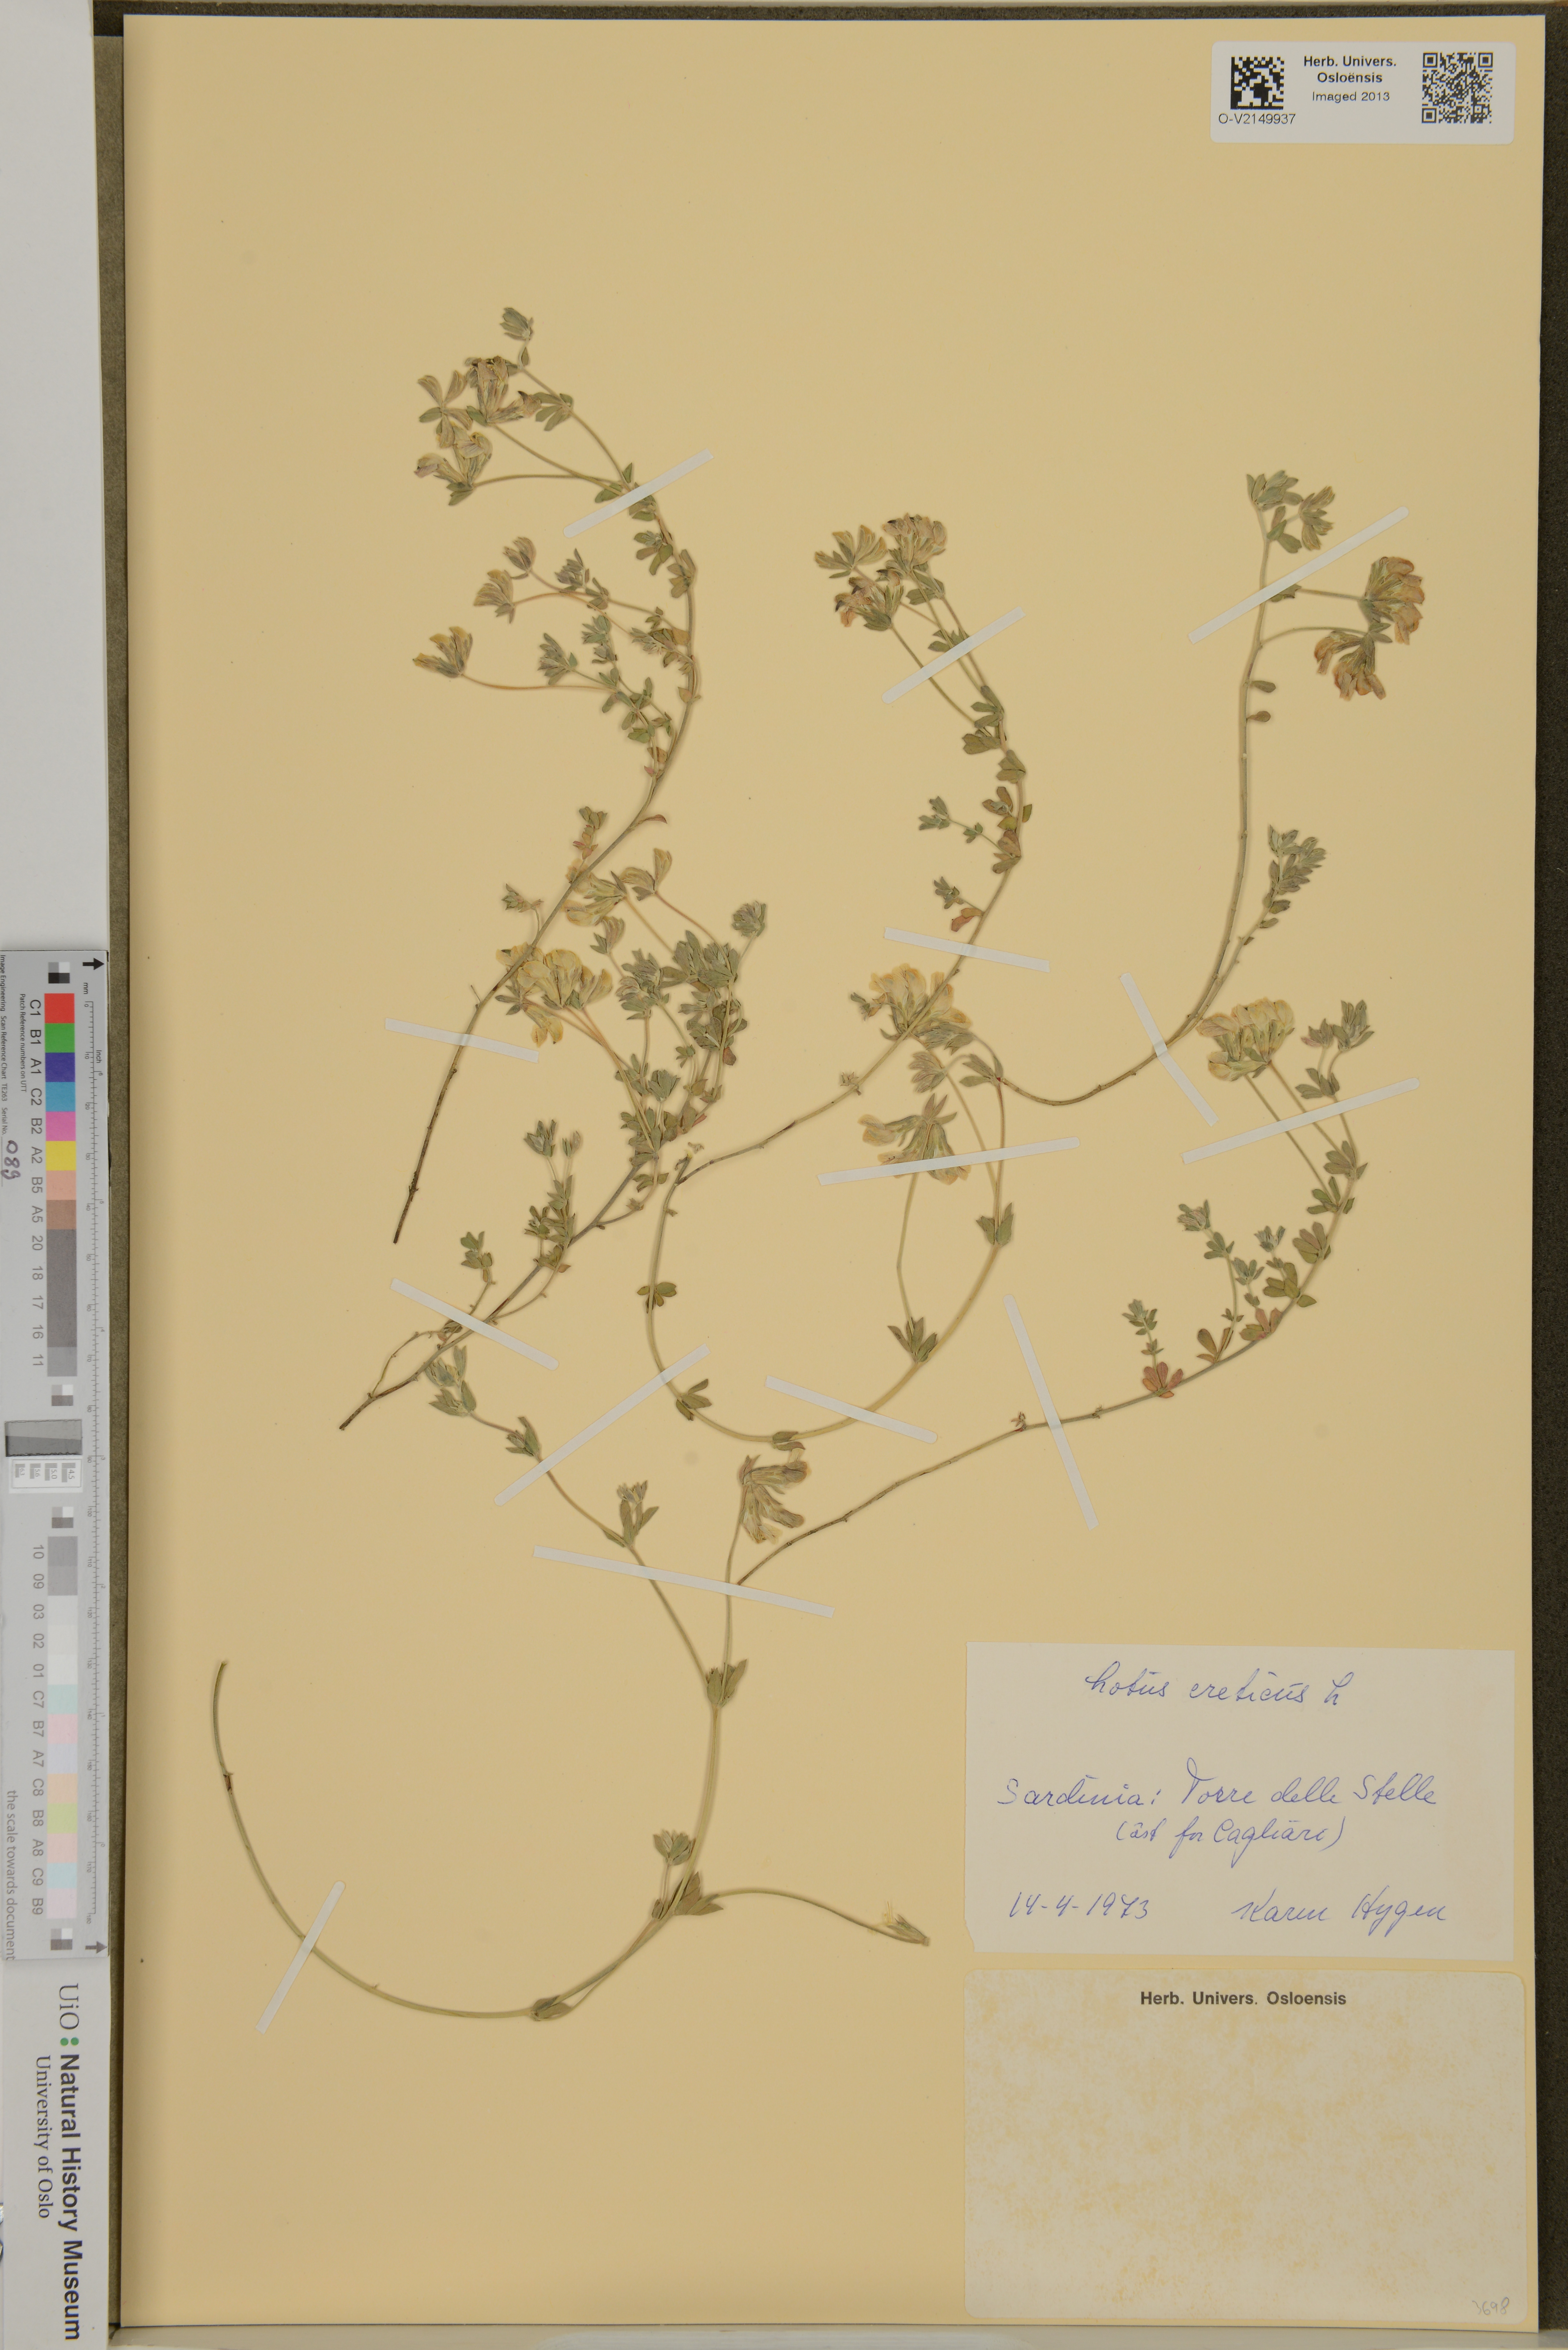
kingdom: Plantae
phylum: Tracheophyta
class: Magnoliopsida
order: Fabales
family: Fabaceae
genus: Lotus
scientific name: Lotus creticus
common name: Cretan bird's-foot trefoil
